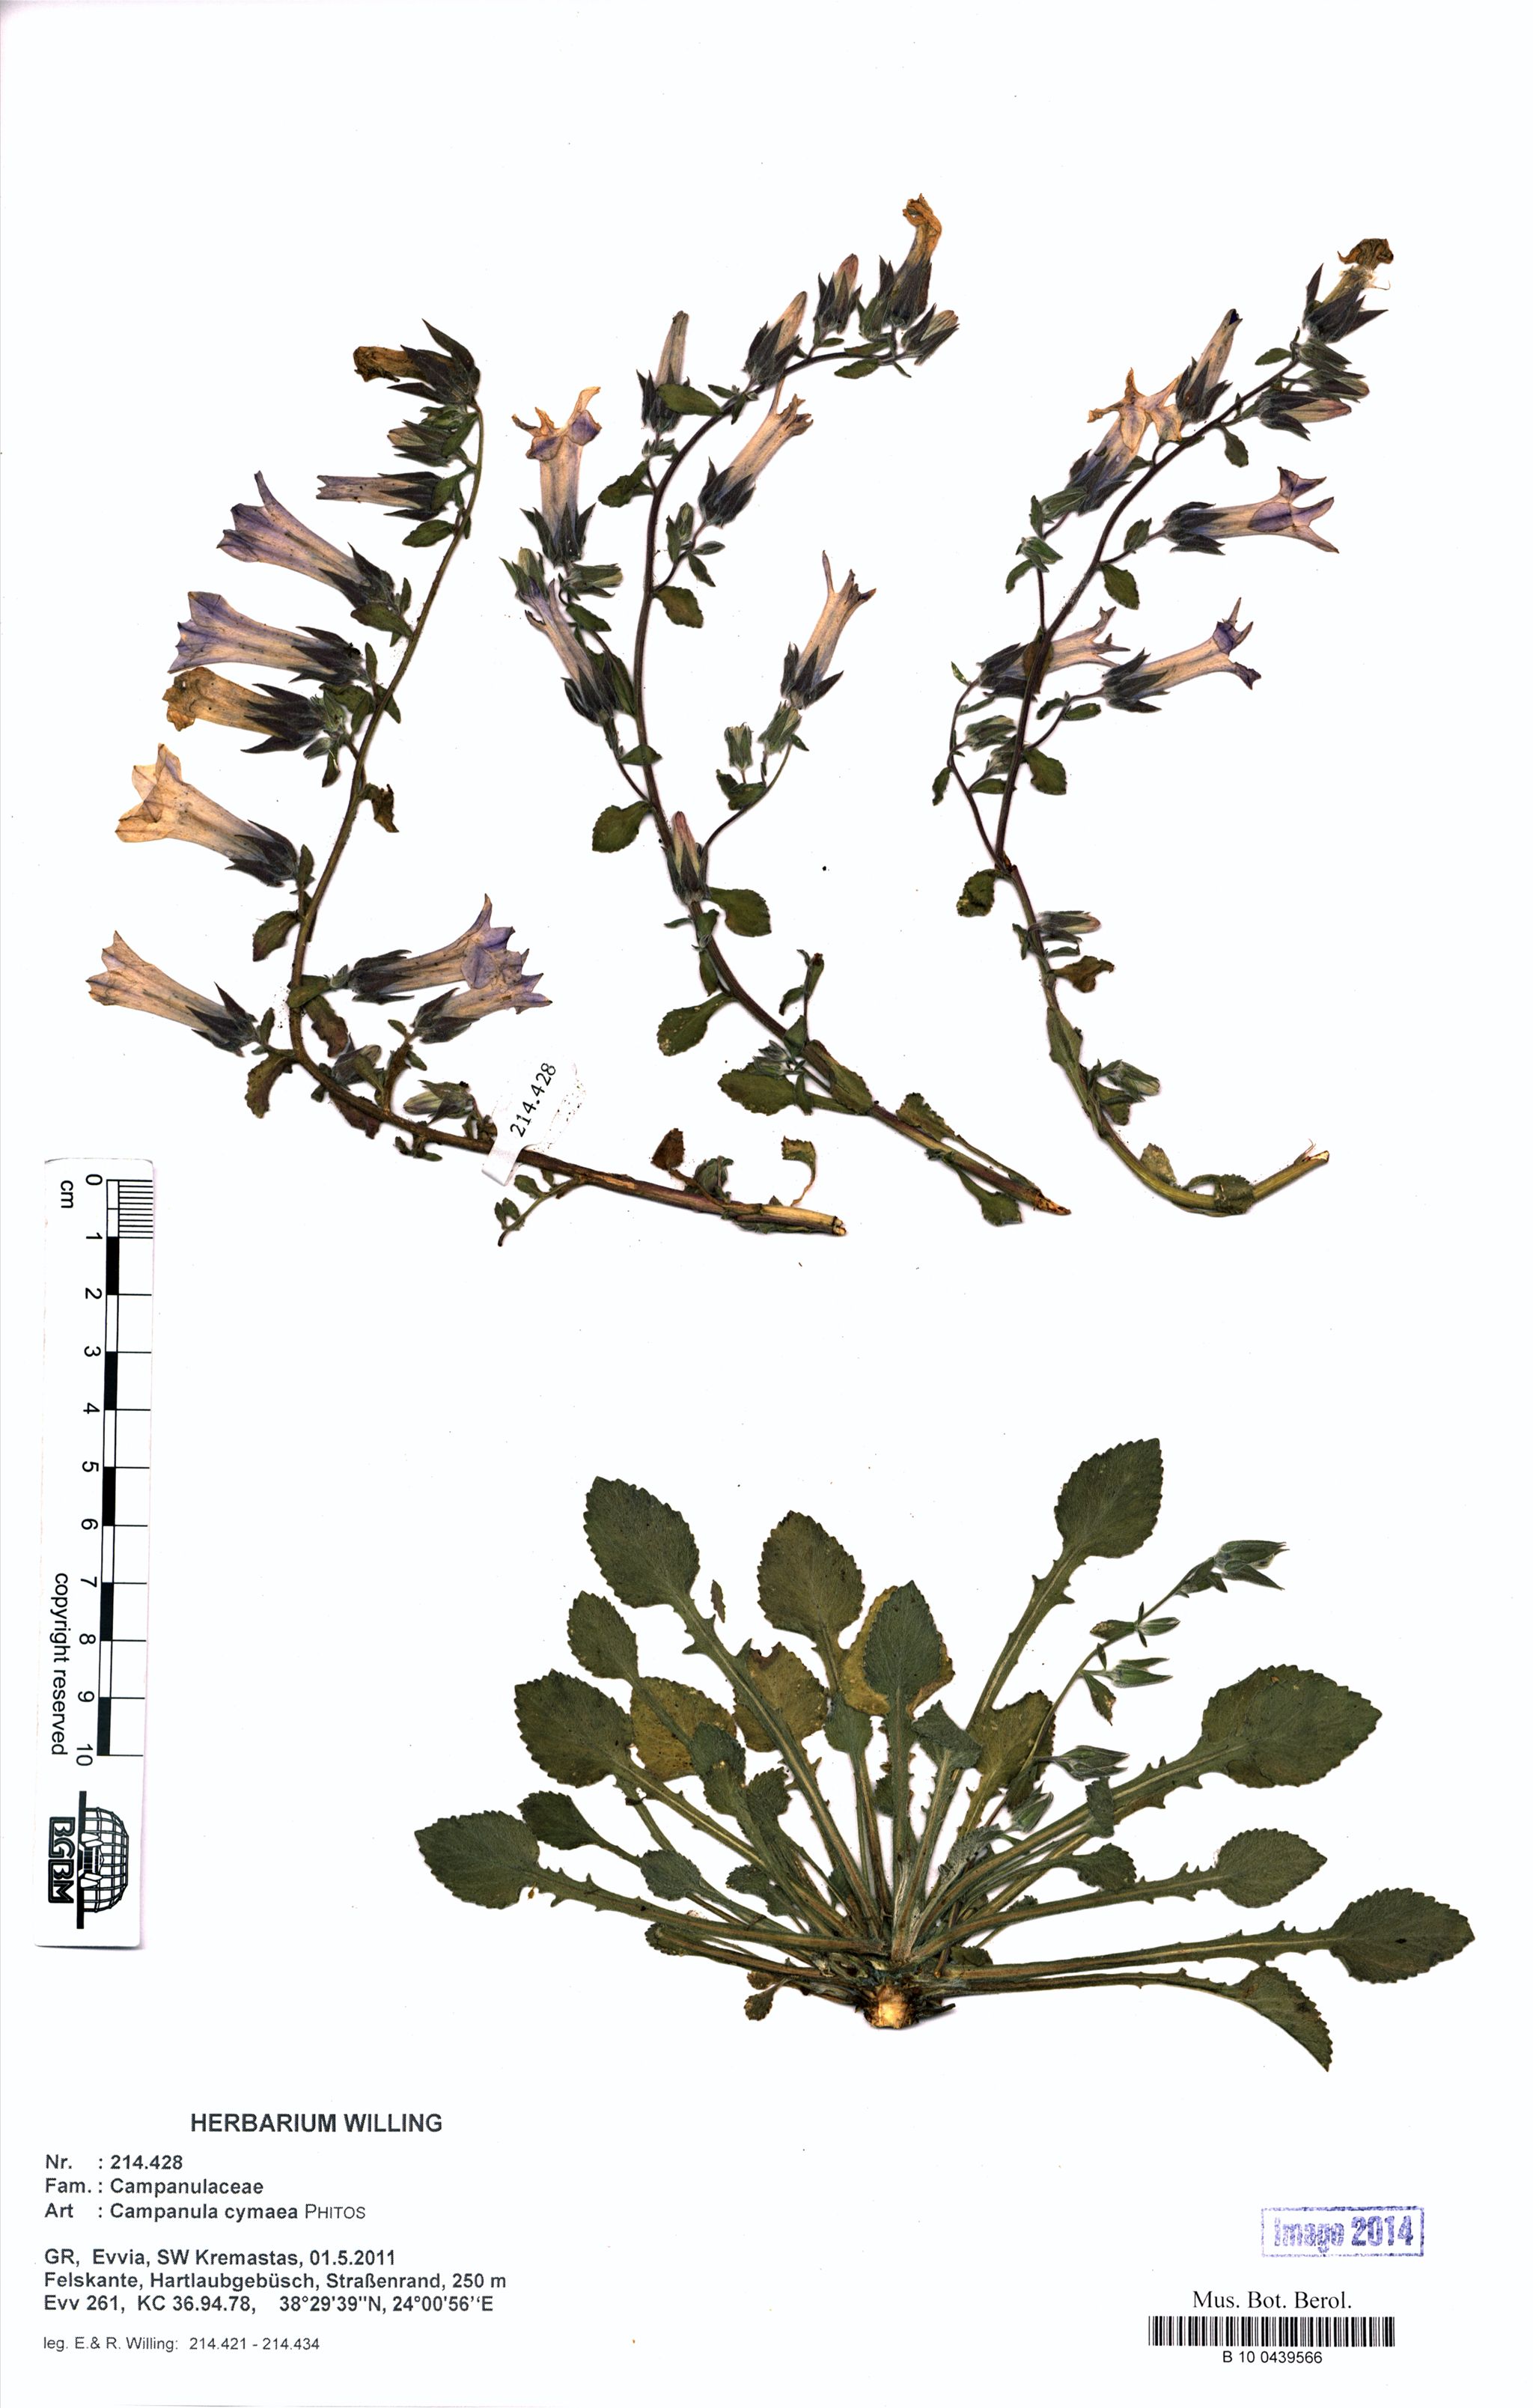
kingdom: Plantae
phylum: Tracheophyta
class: Magnoliopsida
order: Asterales
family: Campanulaceae
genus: Campanula
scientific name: Campanula cymaea
